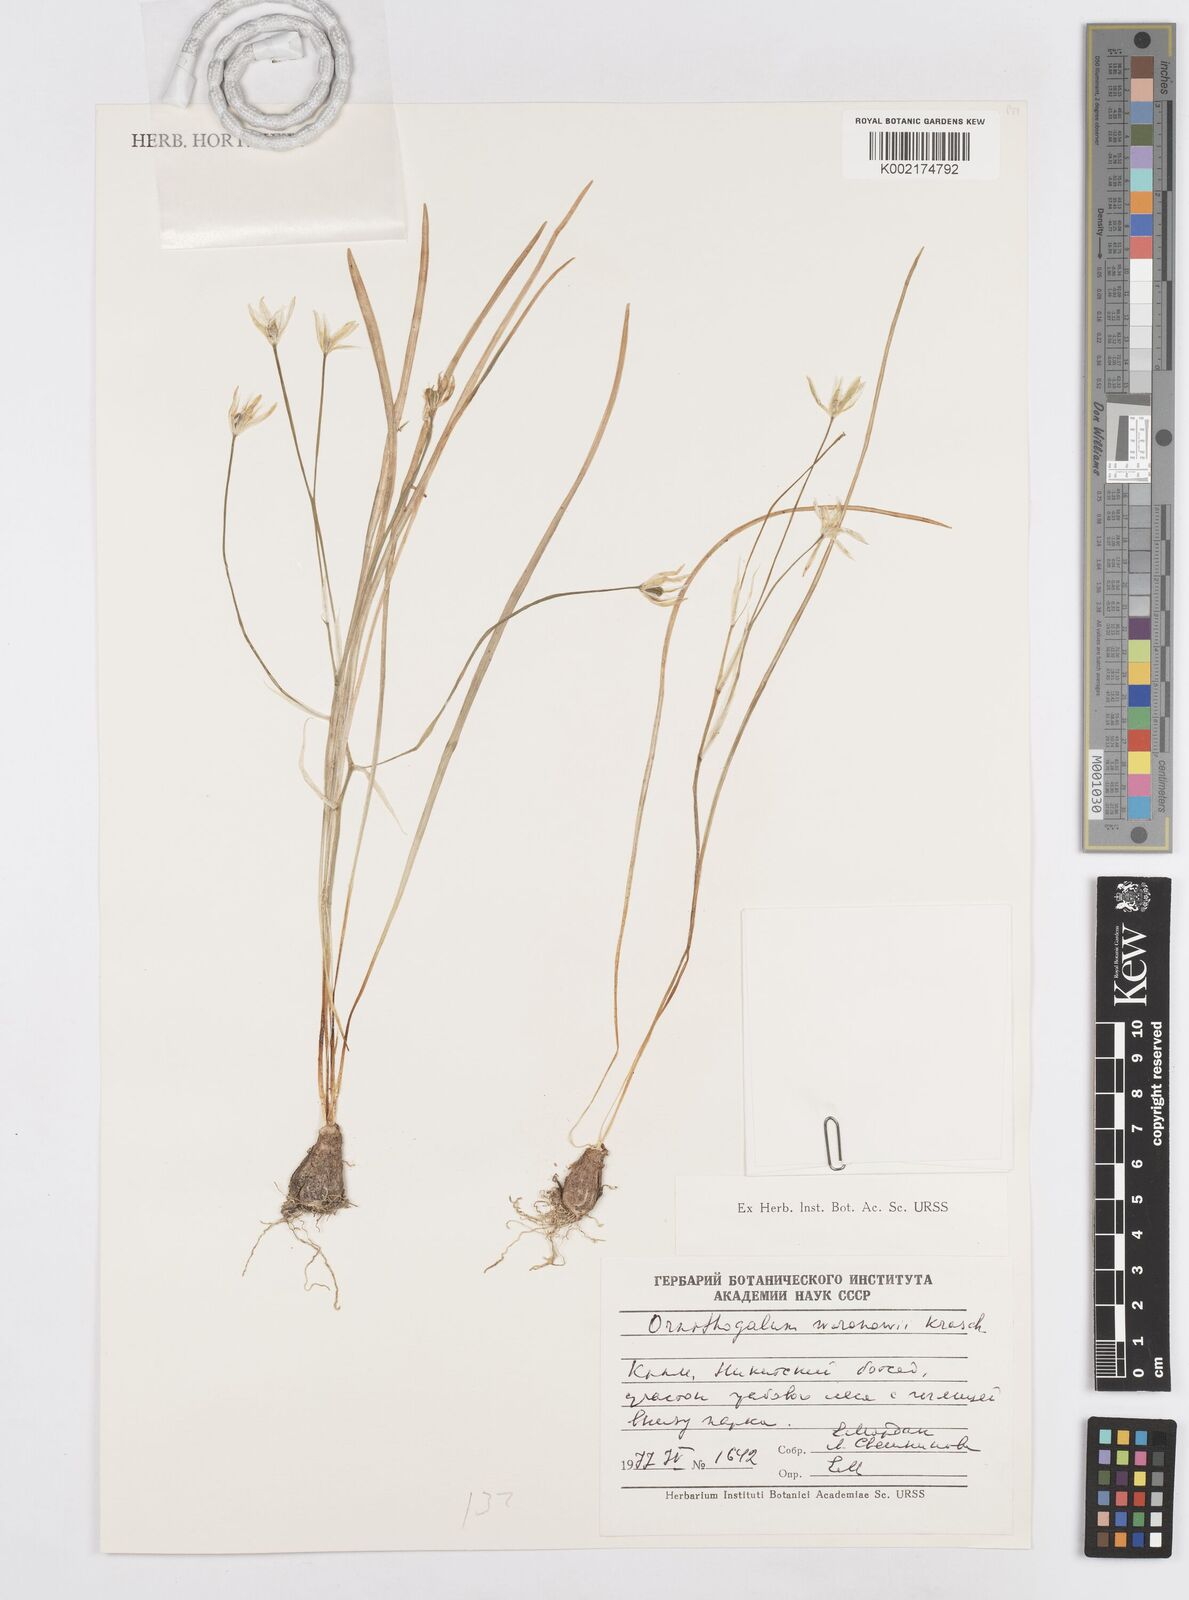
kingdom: Plantae
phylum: Tracheophyta
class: Liliopsida
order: Asparagales
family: Asparagaceae
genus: Ornithogalum
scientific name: Ornithogalum woronowii
